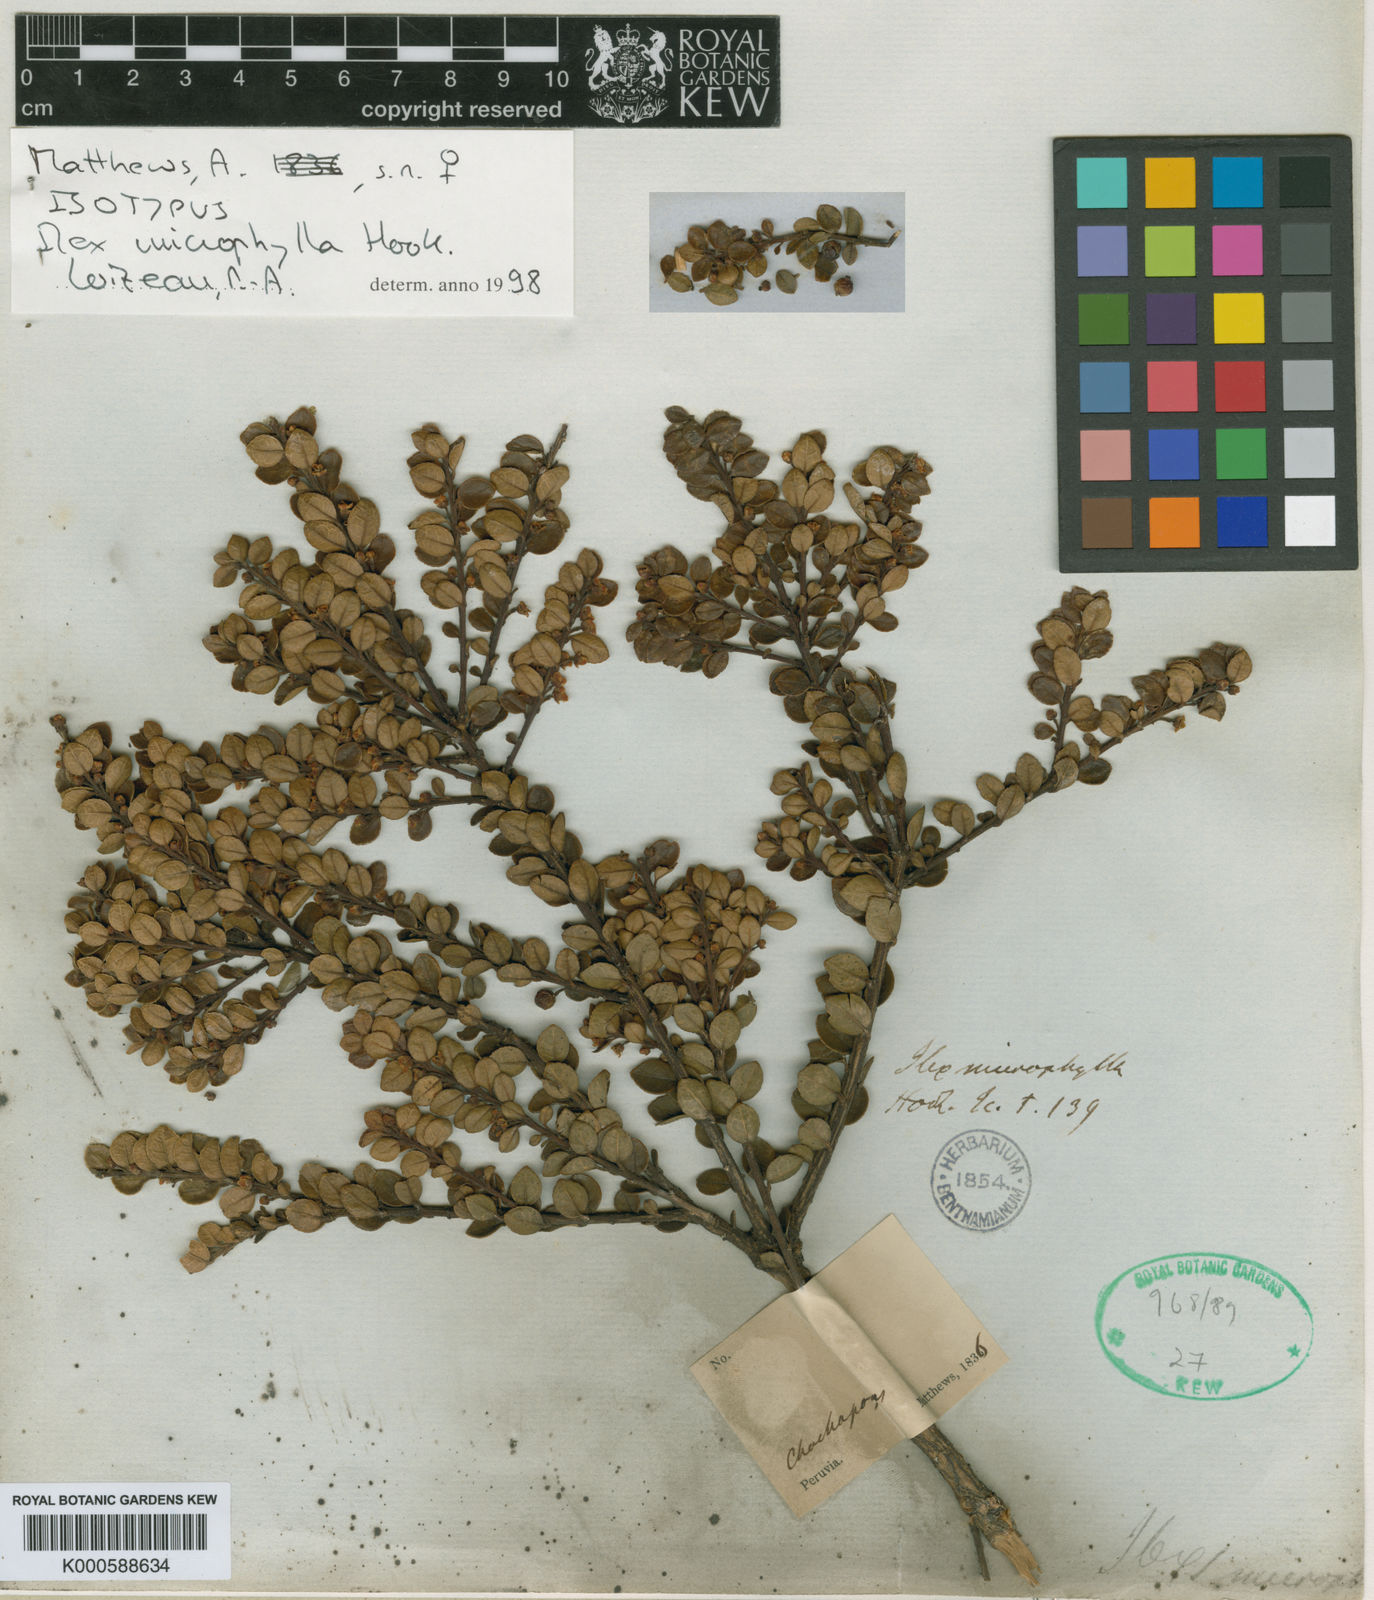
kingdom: Plantae
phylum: Tracheophyta
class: Magnoliopsida
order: Aquifoliales
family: Aquifoliaceae
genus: Ilex
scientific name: Ilex microphylla
